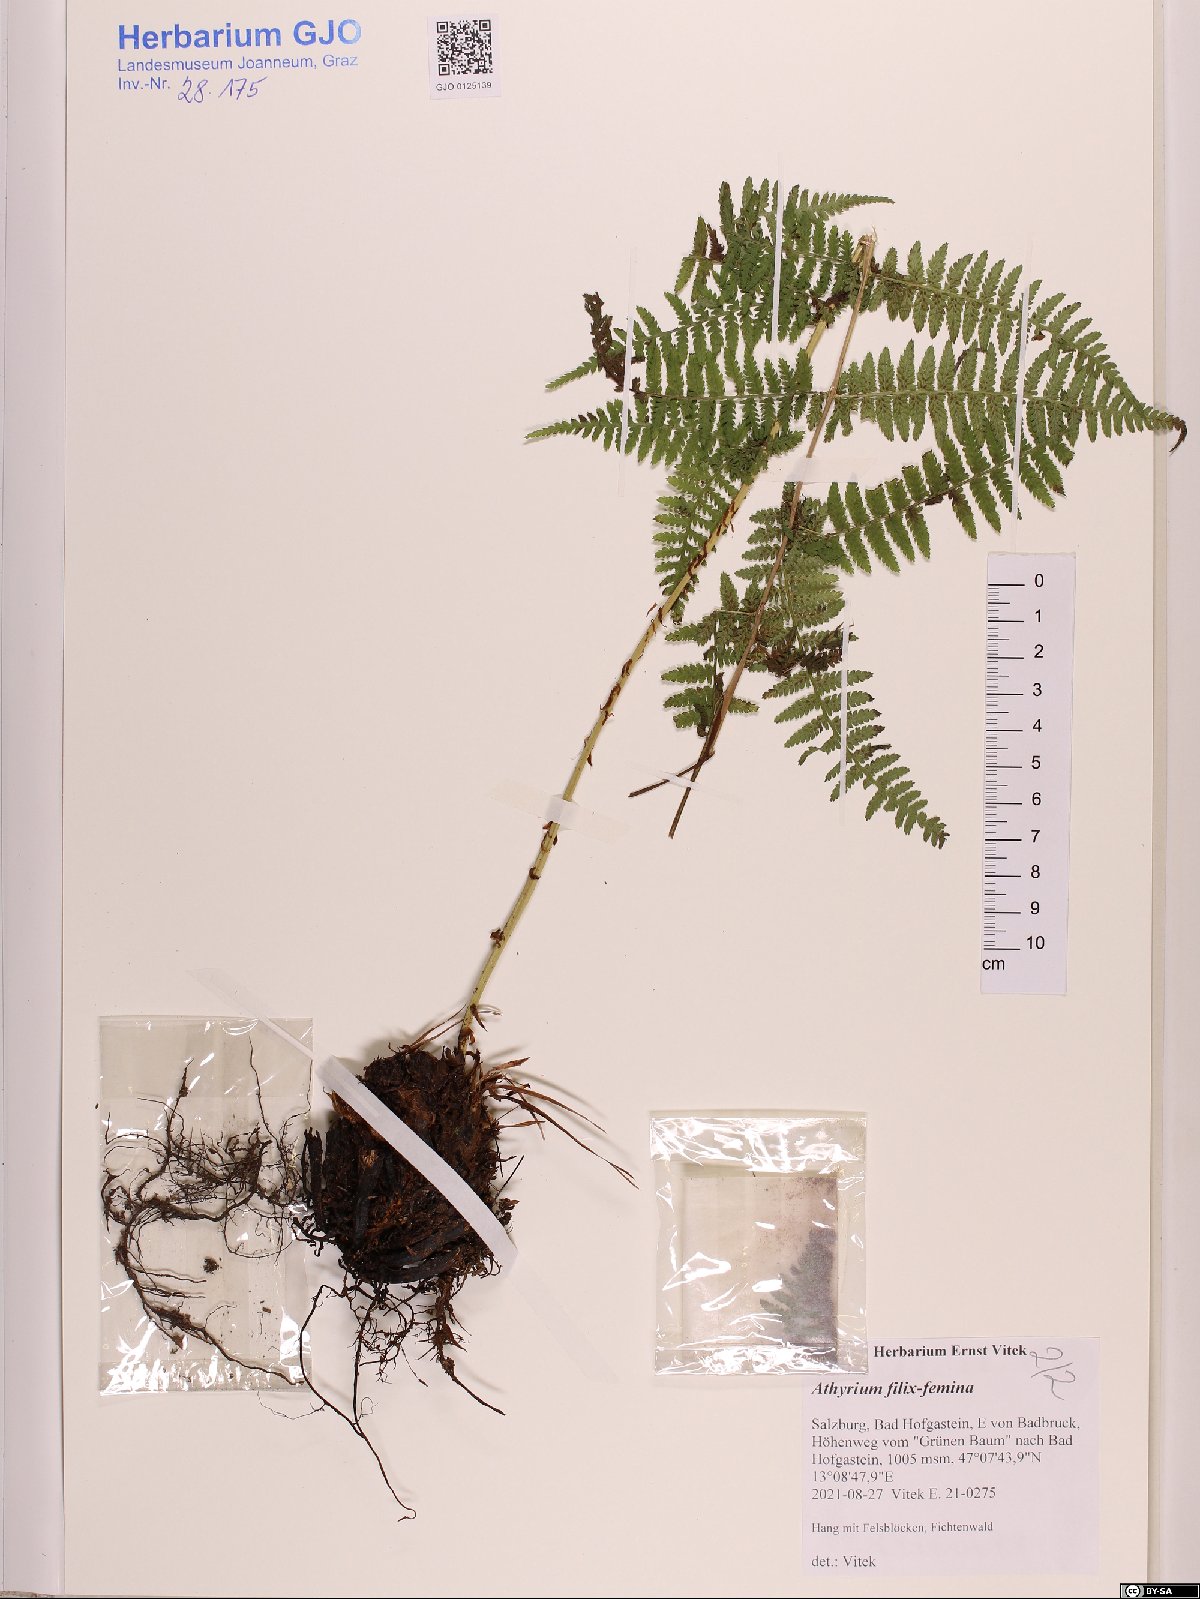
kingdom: Plantae
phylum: Tracheophyta
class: Polypodiopsida
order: Polypodiales
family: Athyriaceae
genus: Athyrium
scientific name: Athyrium filix-femina
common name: Lady fern
